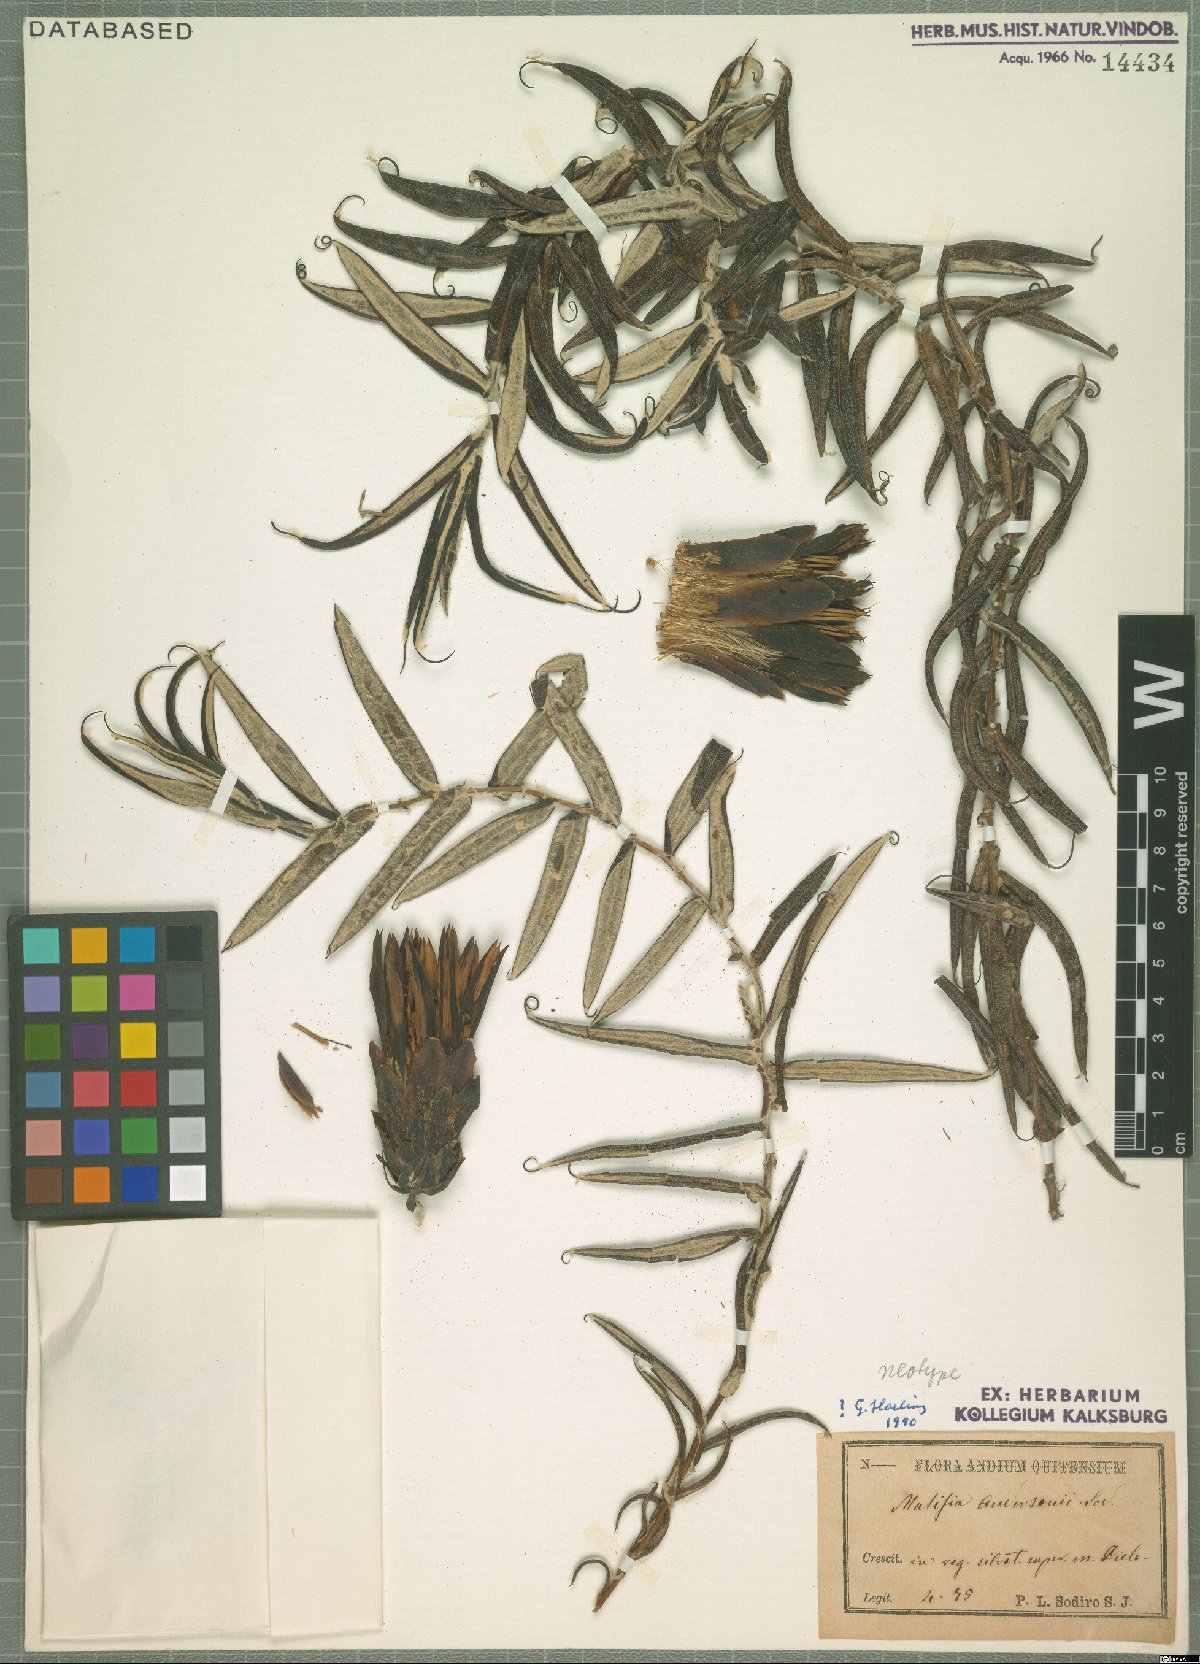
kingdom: Plantae
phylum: Tracheophyta
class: Magnoliopsida
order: Asterales
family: Asteraceae
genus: Mutisia
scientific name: Mutisia anderssonii
